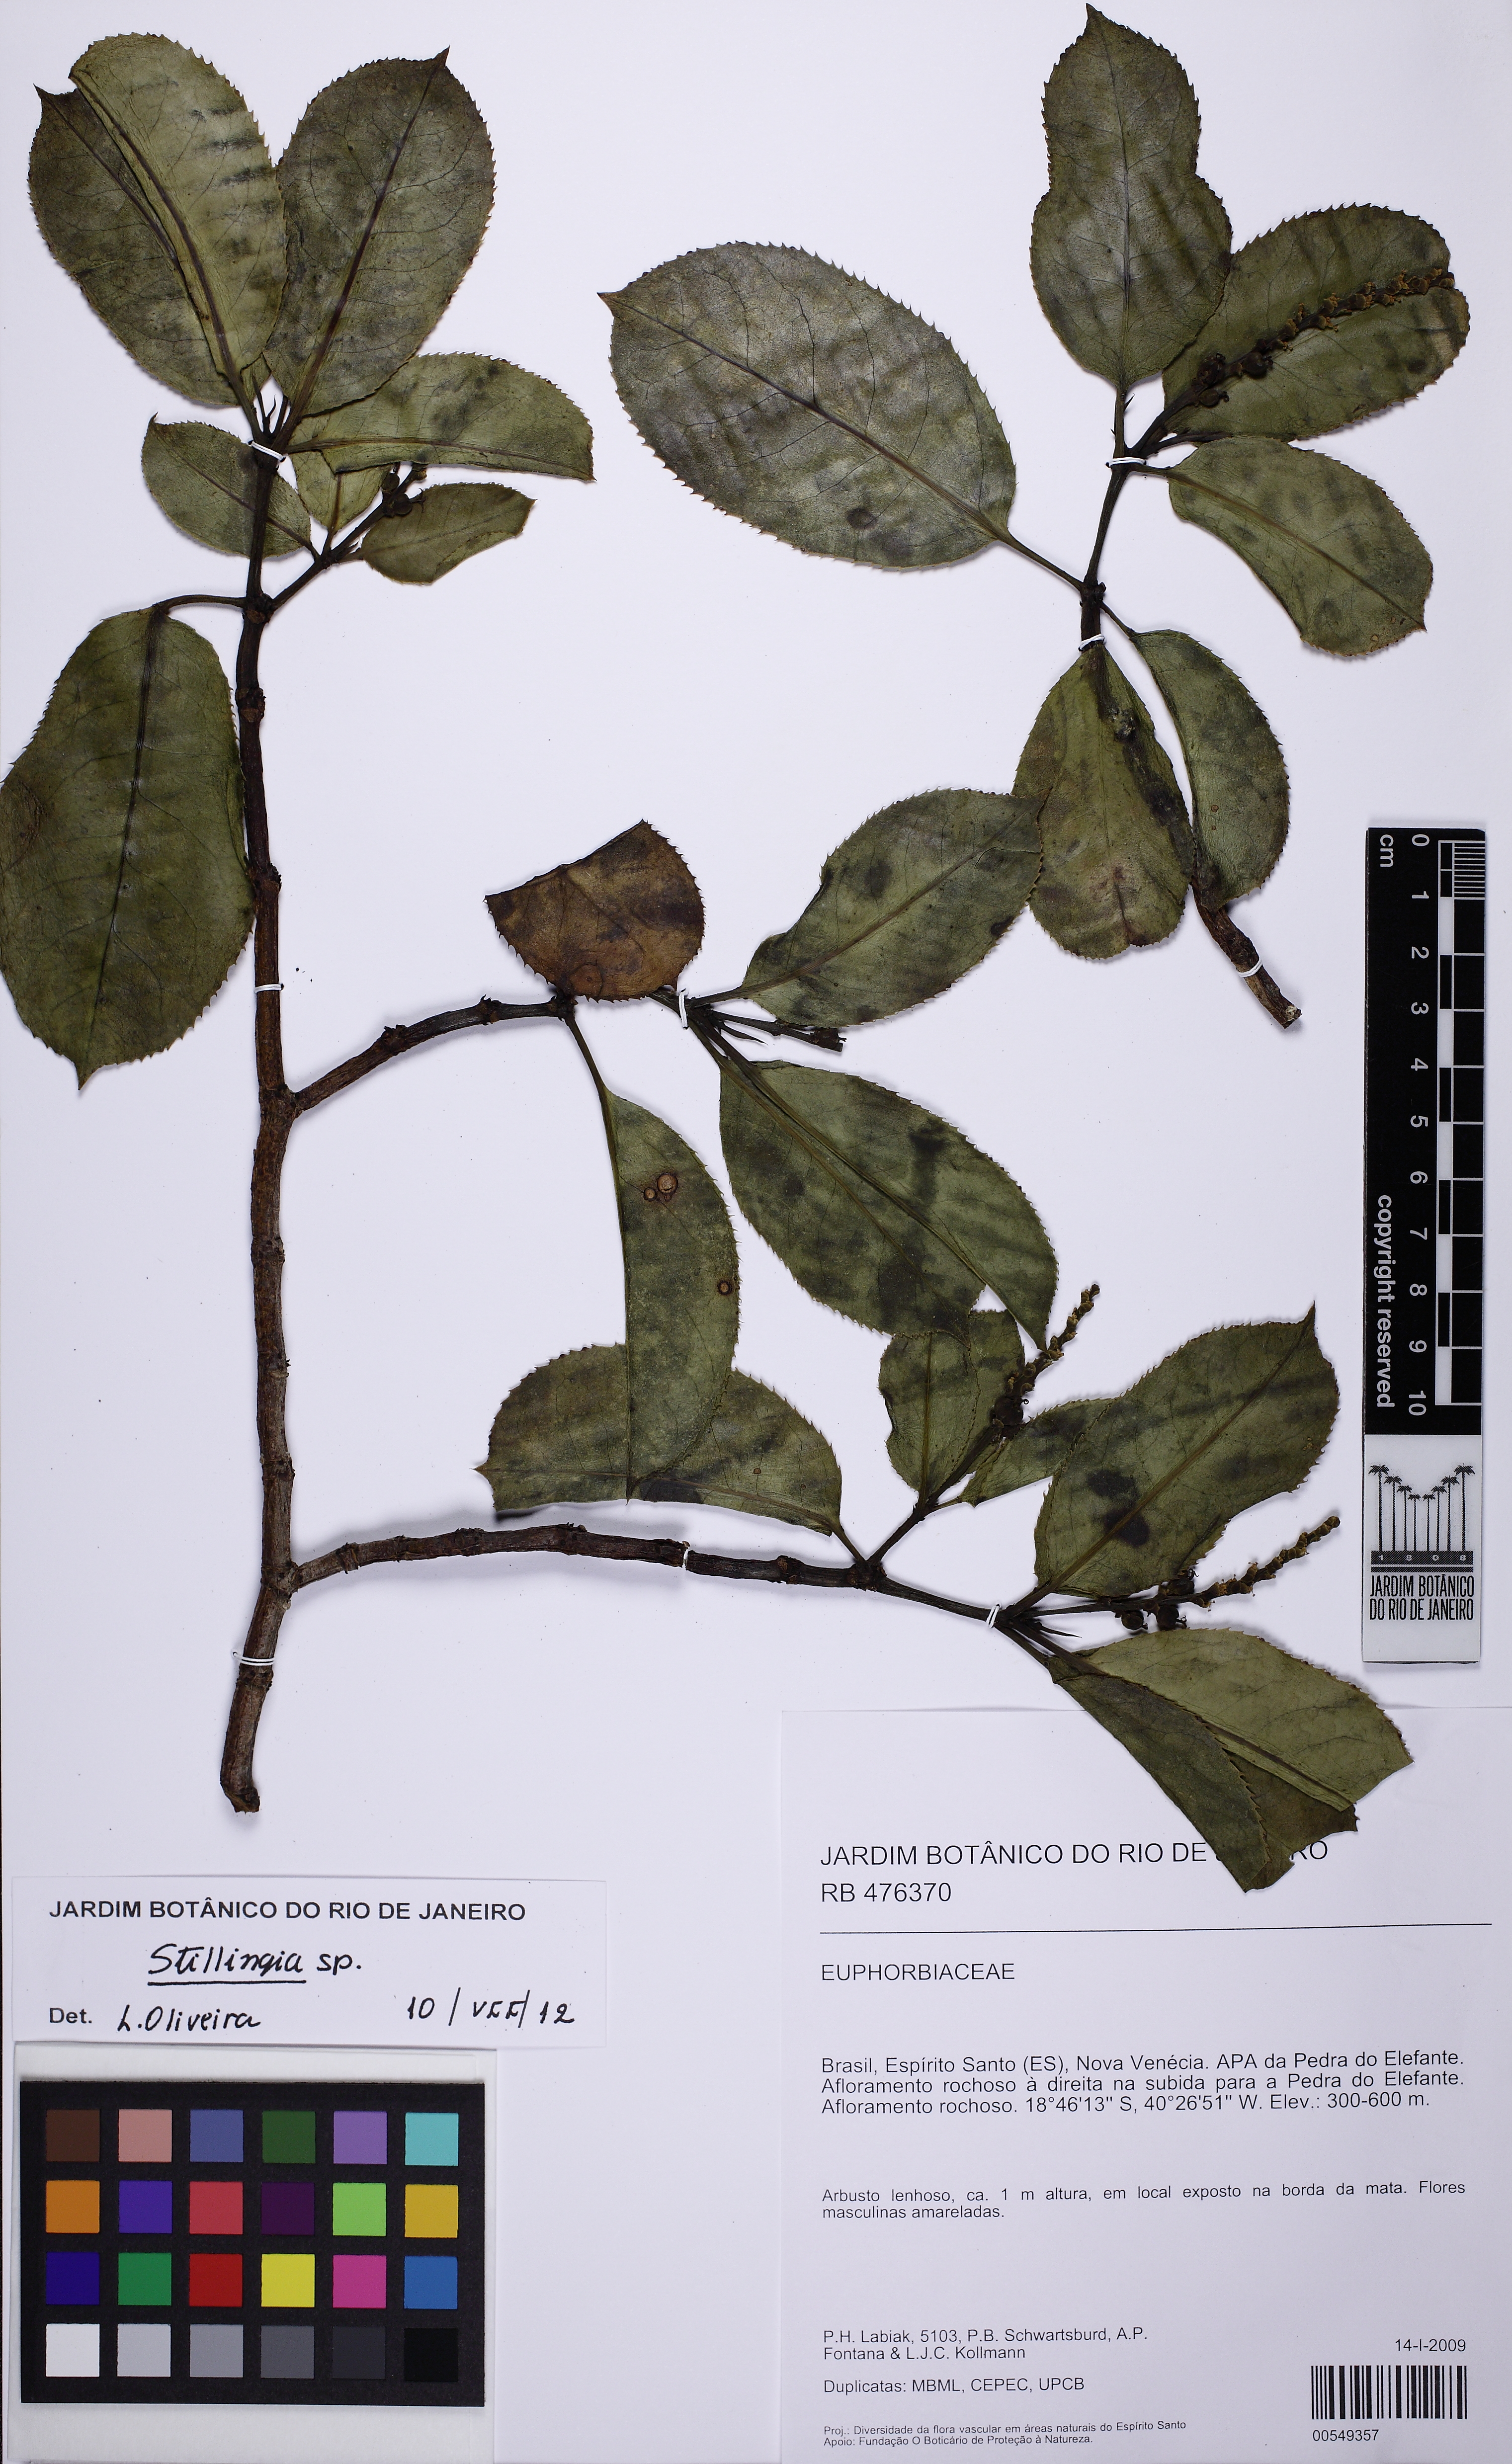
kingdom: Plantae
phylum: Tracheophyta
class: Magnoliopsida
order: Malpighiales
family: Euphorbiaceae
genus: Stillingia
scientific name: Stillingia
